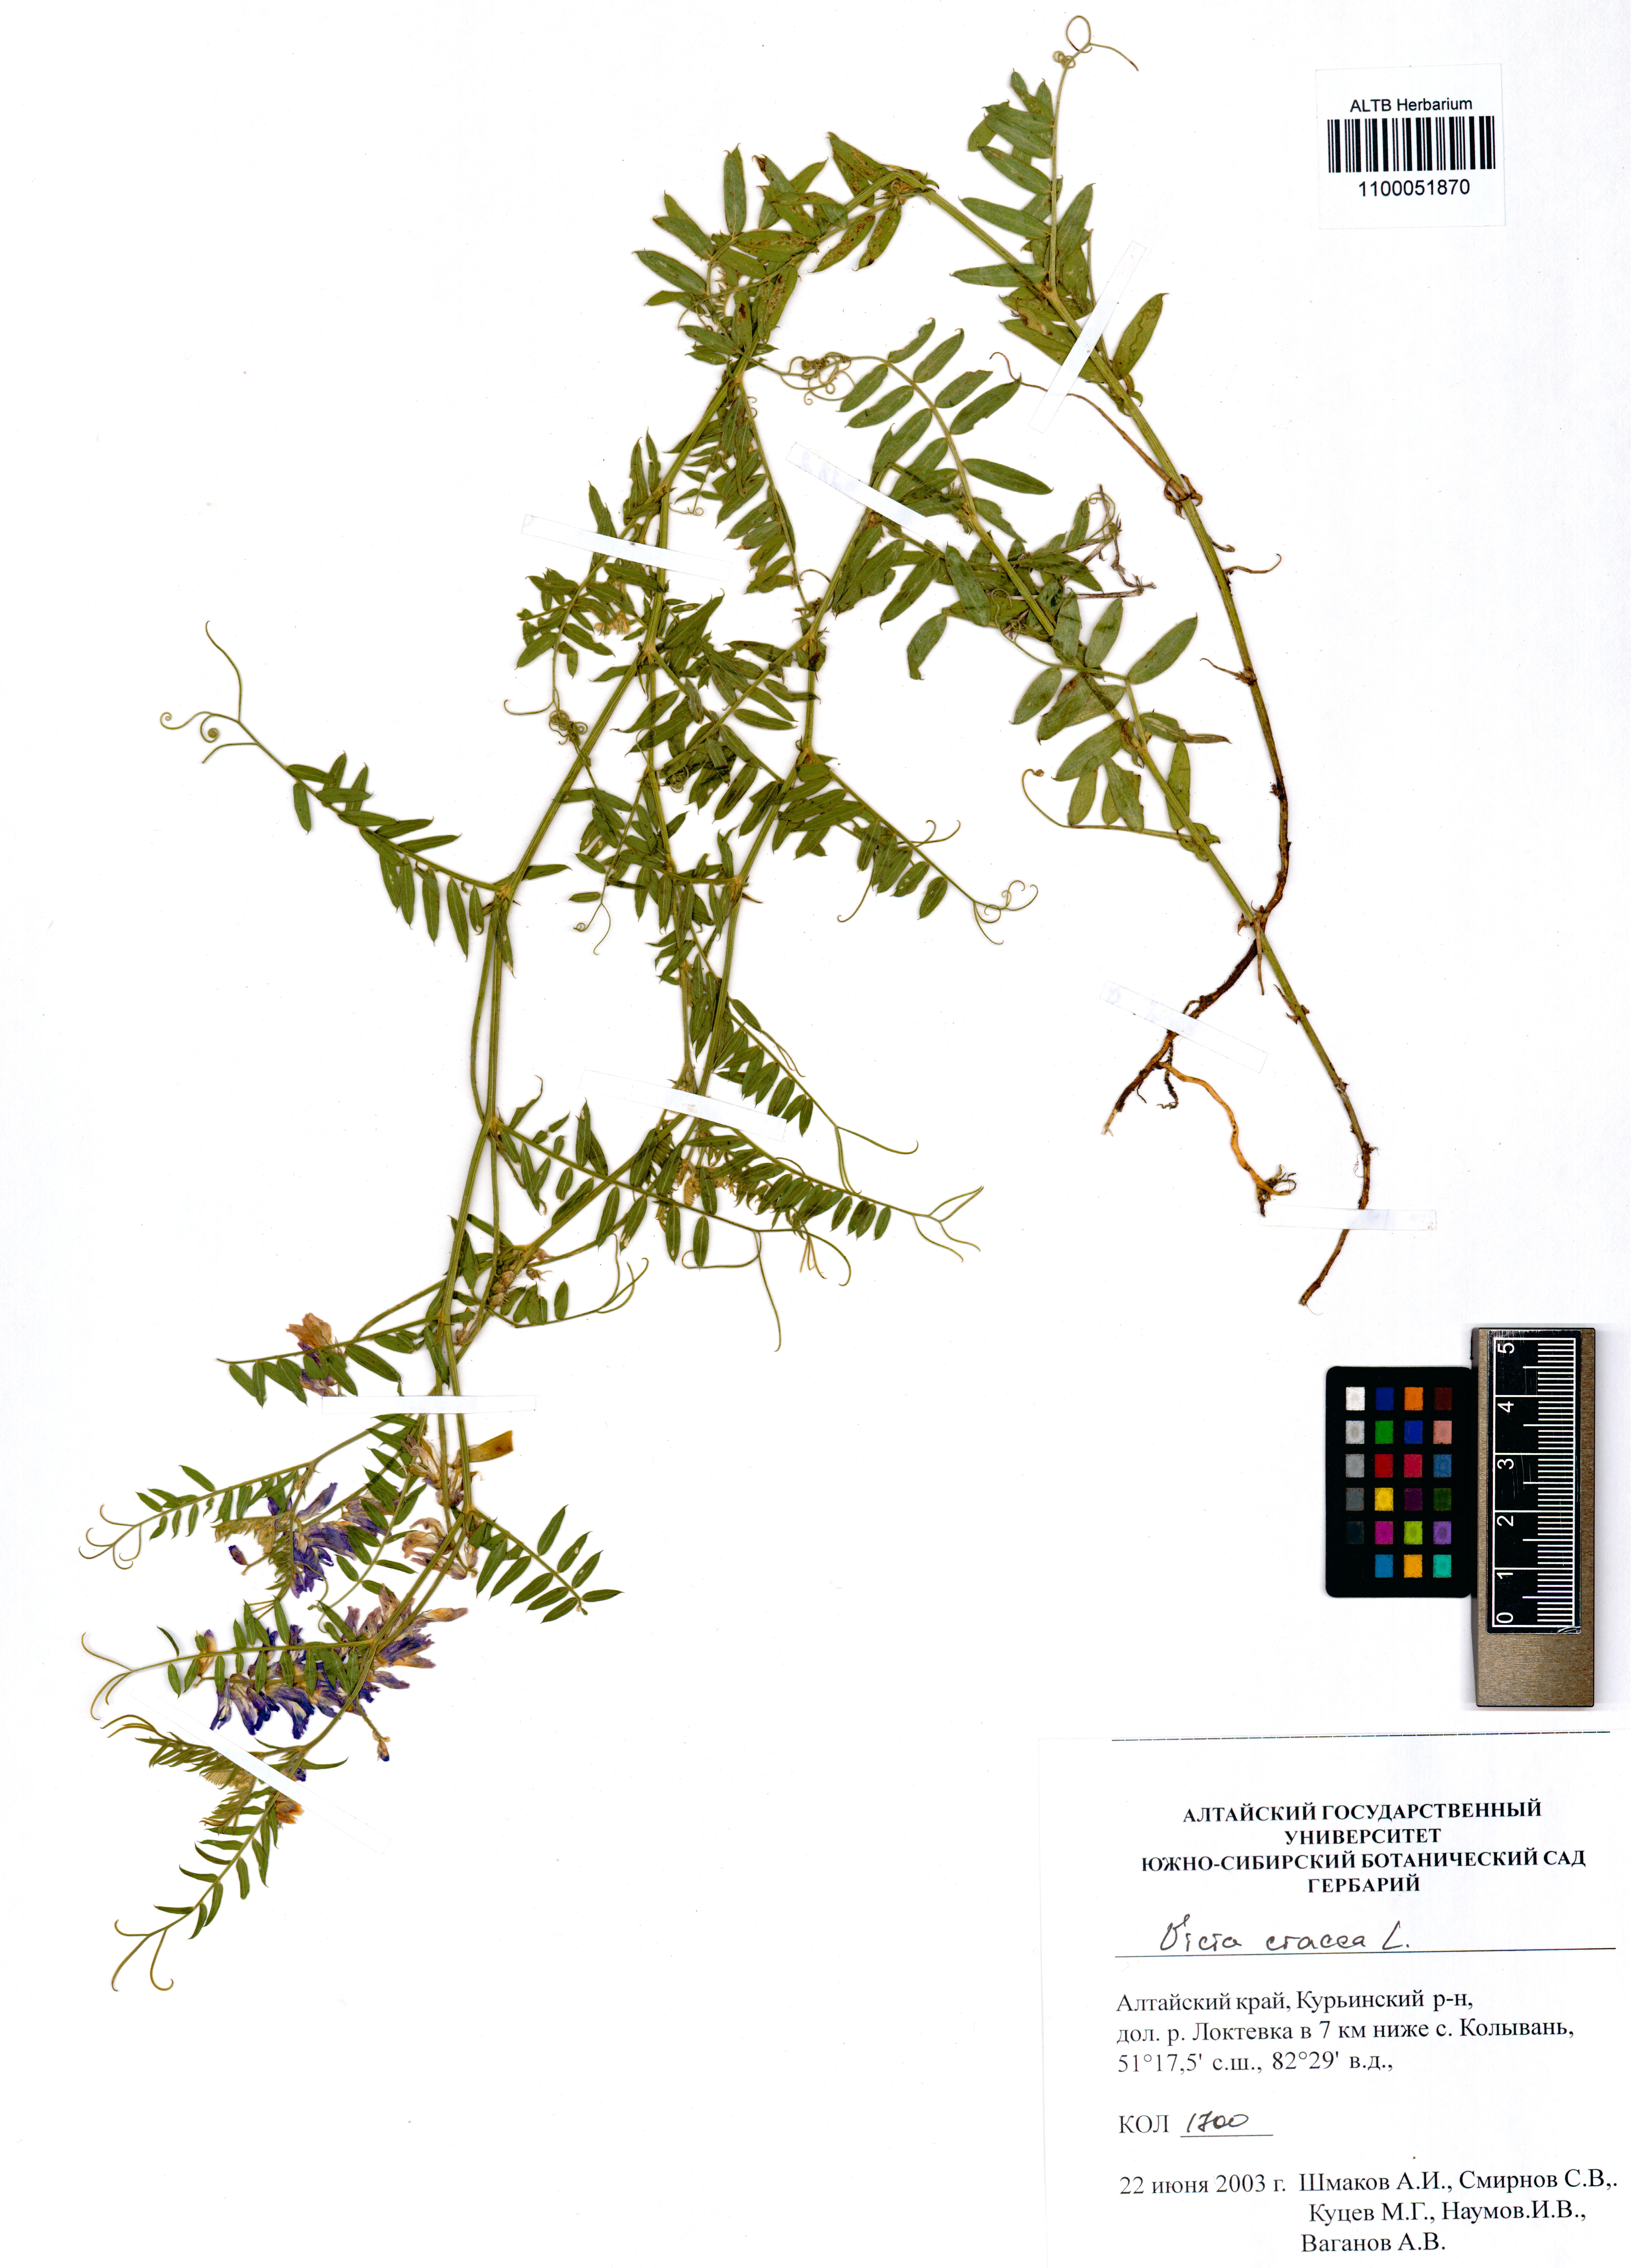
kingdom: Plantae
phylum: Tracheophyta
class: Magnoliopsida
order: Fabales
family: Fabaceae
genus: Vicia
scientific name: Vicia cracca
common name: Bird vetch
